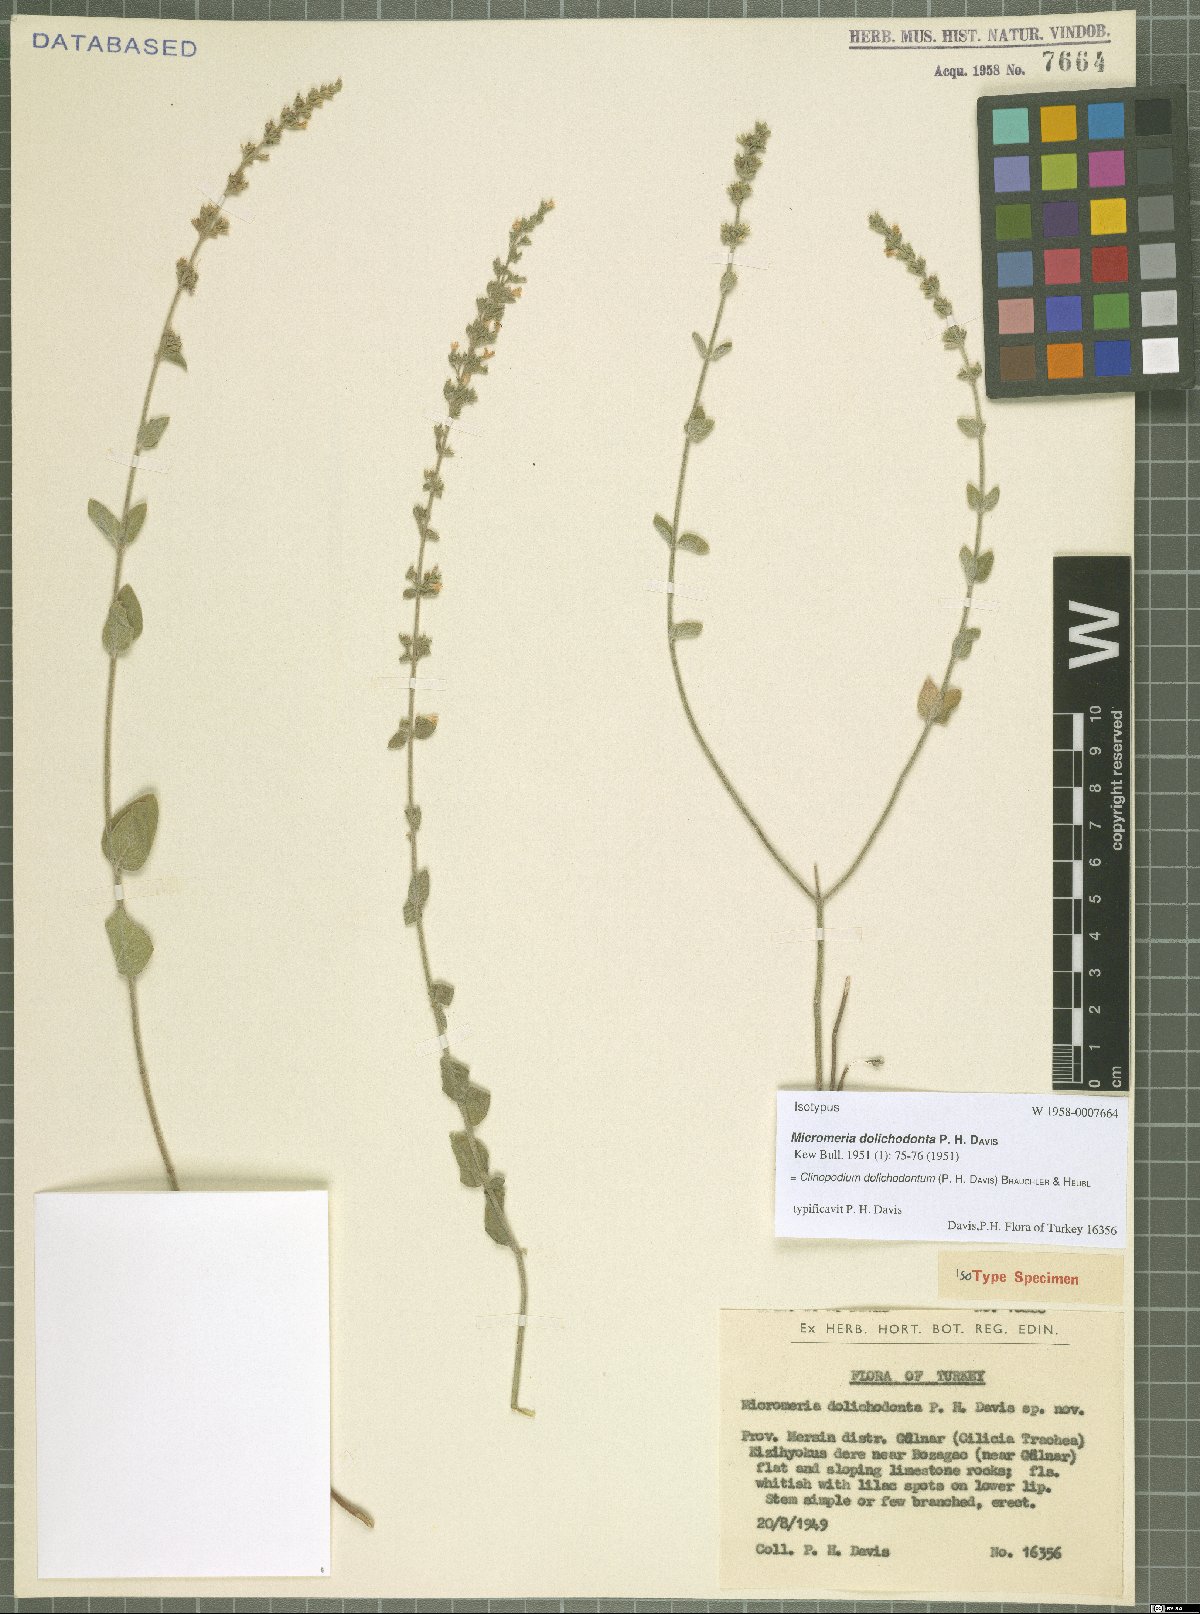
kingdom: Plantae
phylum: Tracheophyta
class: Magnoliopsida
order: Lamiales
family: Lamiaceae
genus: Clinopodium
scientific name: Clinopodium dolichodontum
